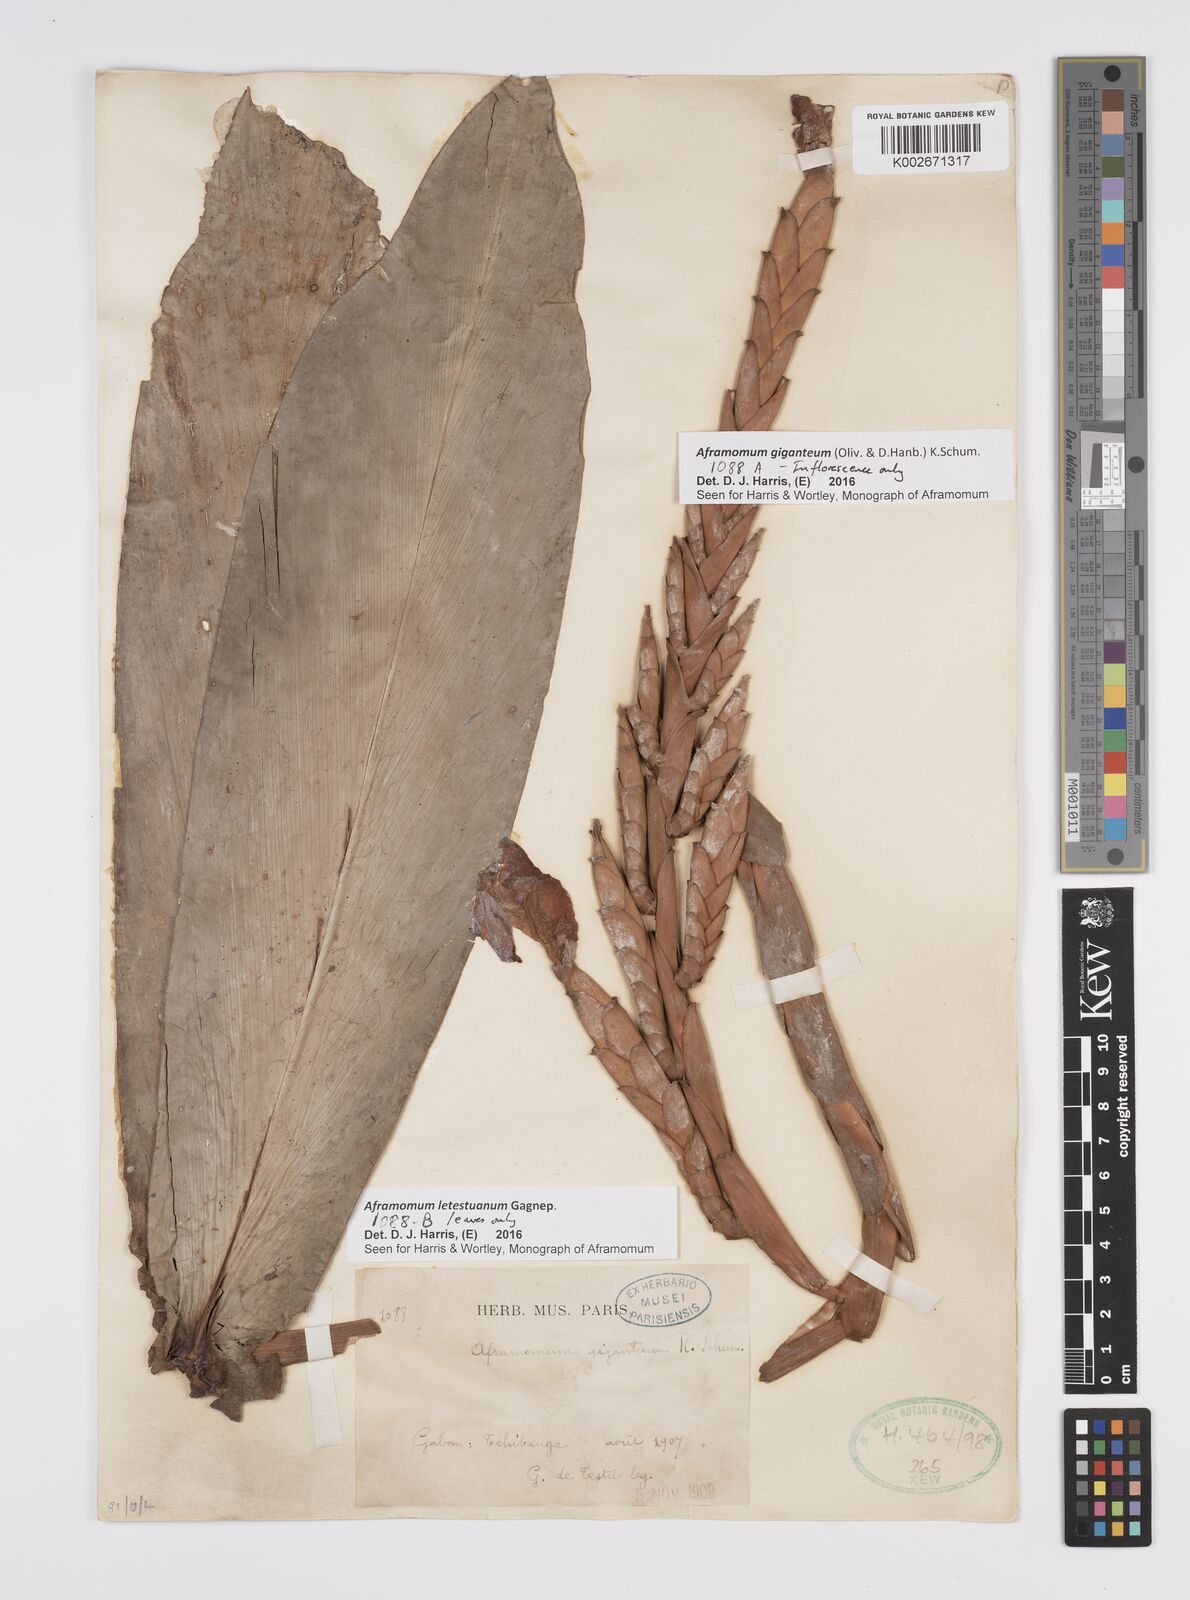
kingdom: Plantae
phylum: Tracheophyta
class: Liliopsida
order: Zingiberales
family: Zingiberaceae
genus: Aframomum
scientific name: Aframomum letestuanum
